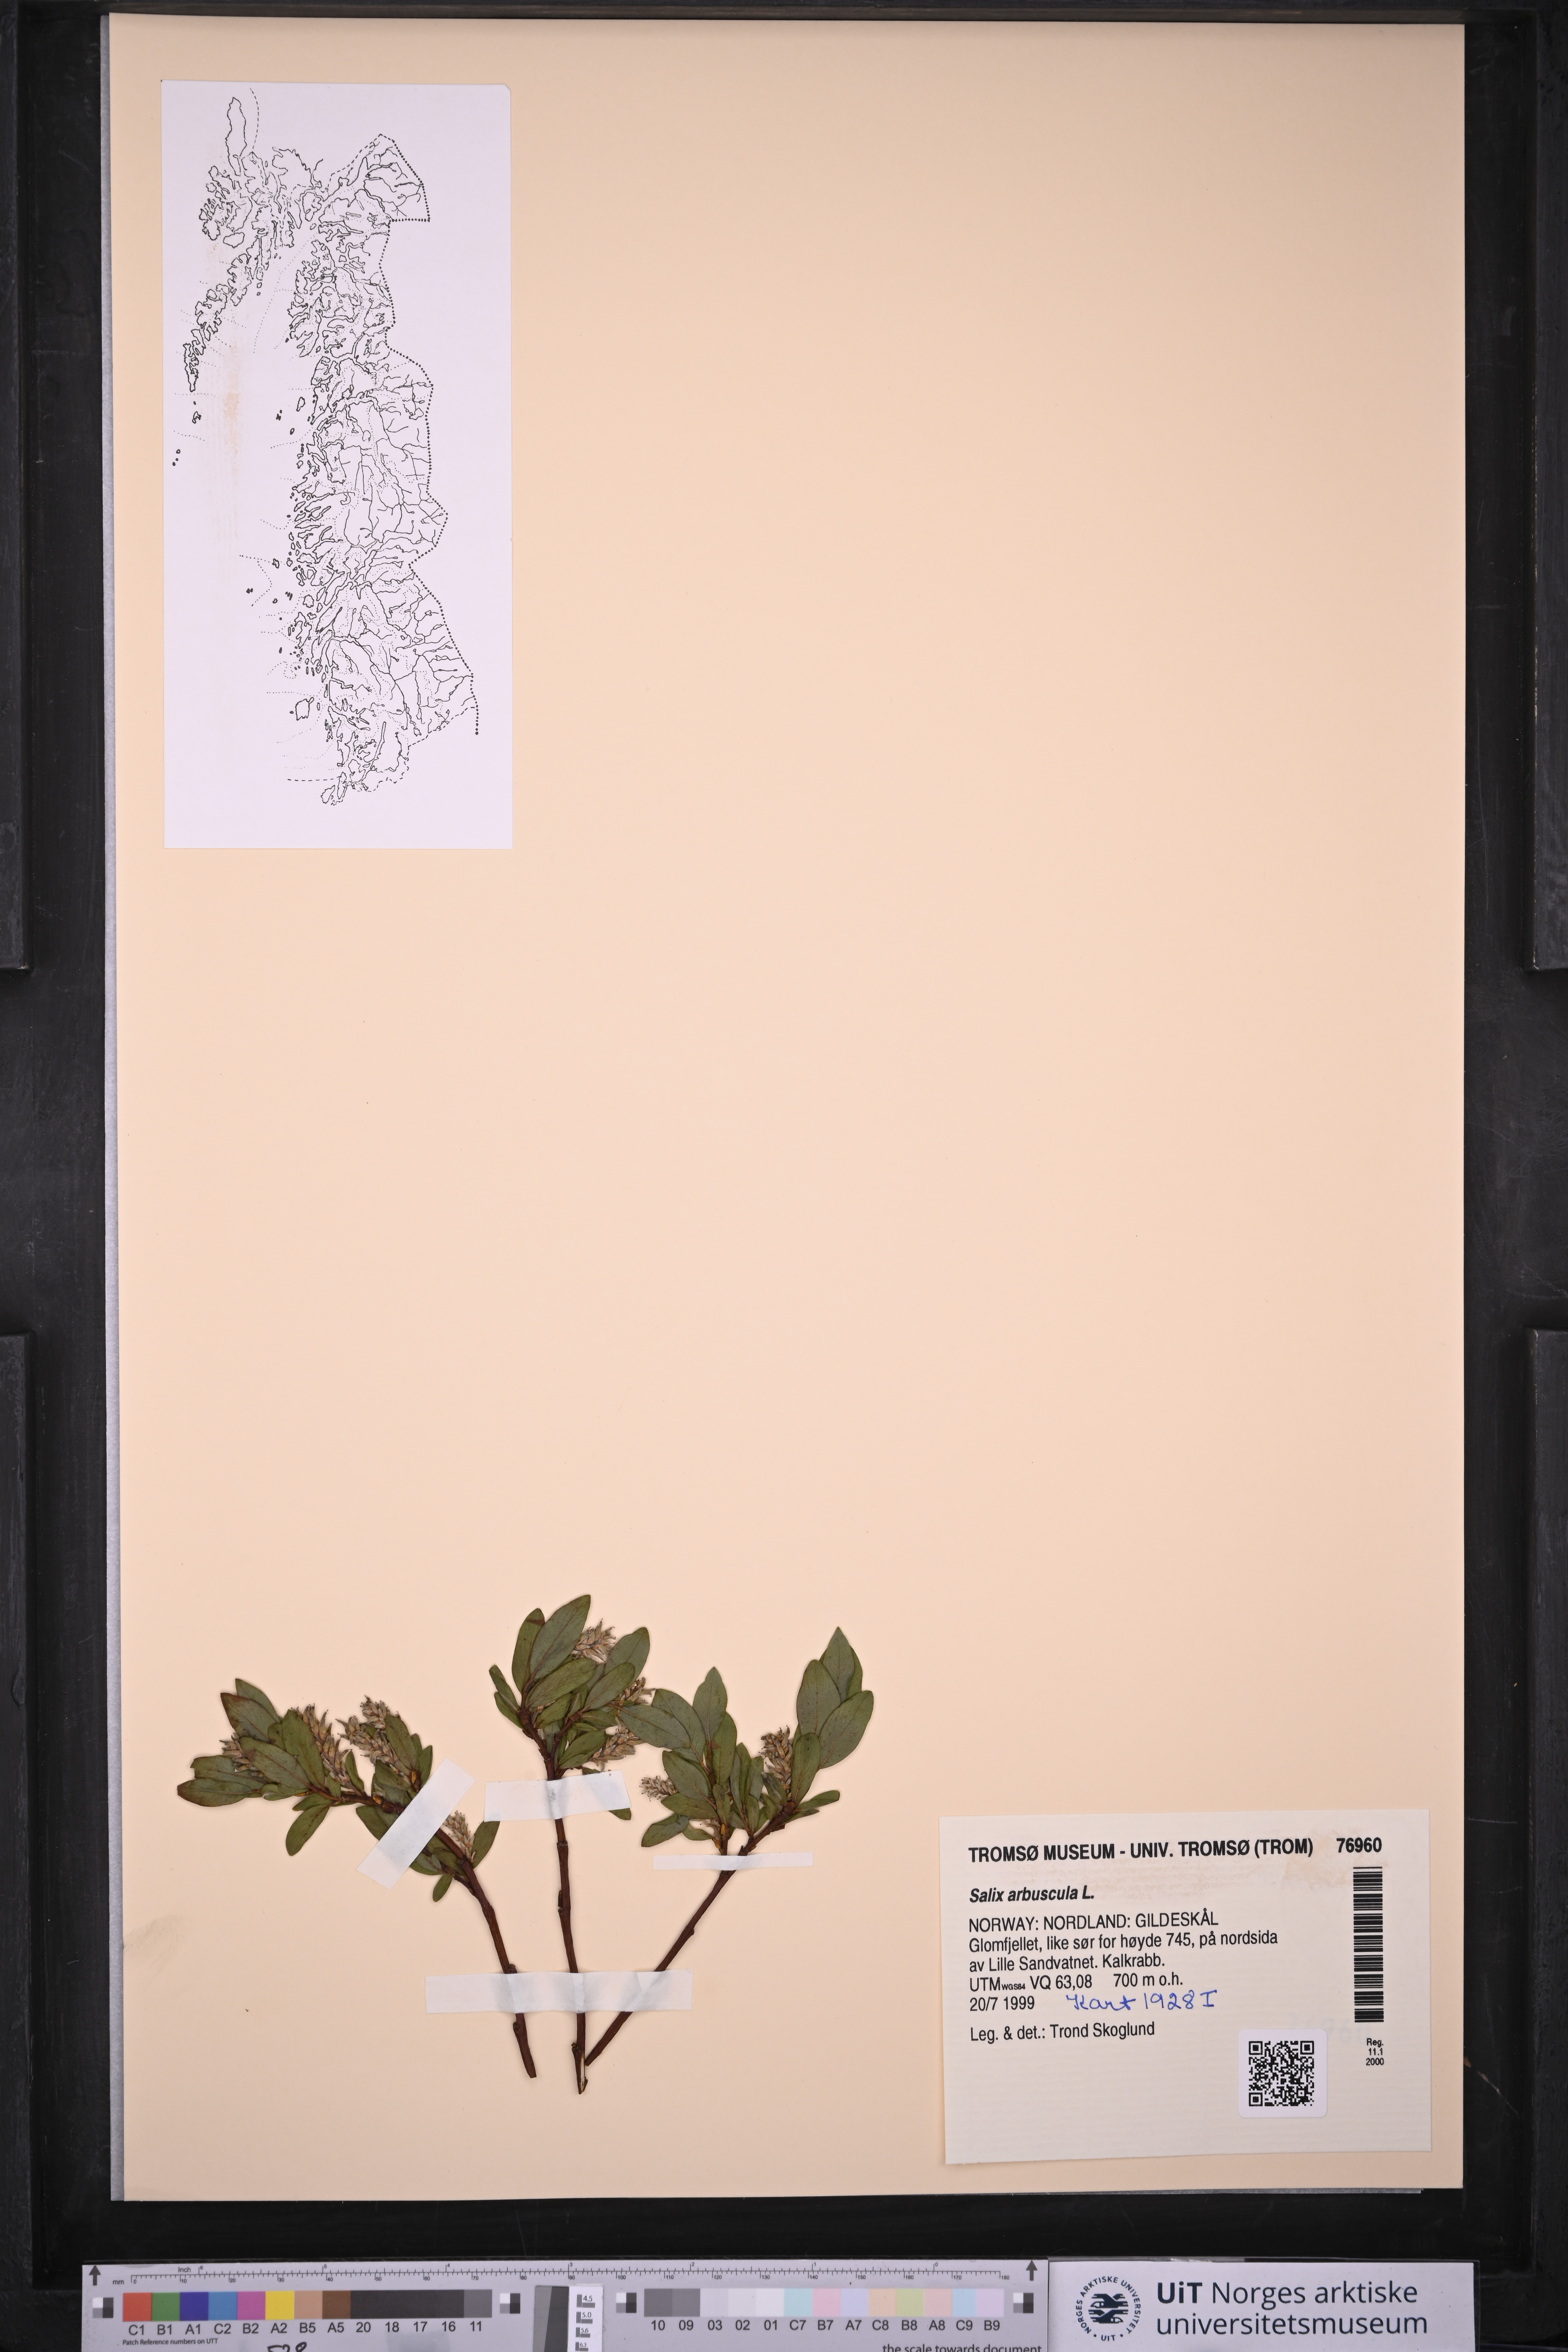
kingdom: Plantae
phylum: Tracheophyta
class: Magnoliopsida
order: Malpighiales
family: Salicaceae
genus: Salix
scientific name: Salix arbuscula
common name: Mountain willow
